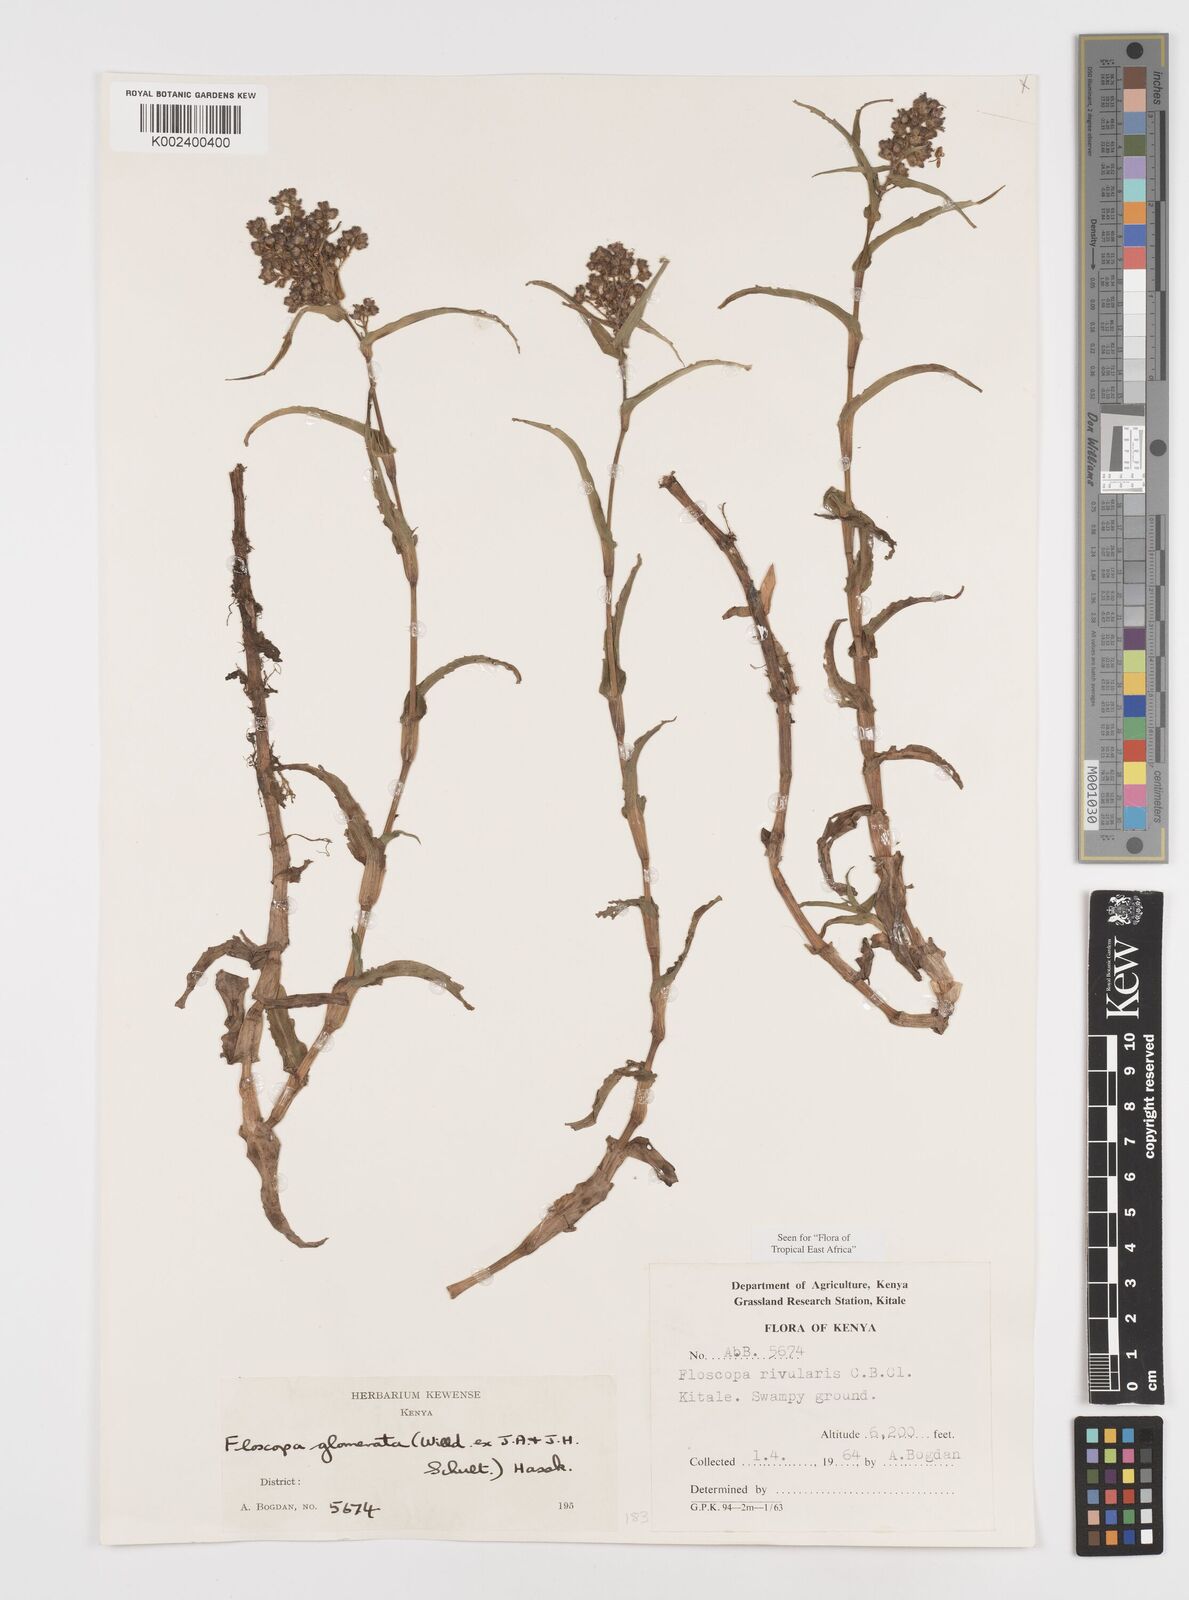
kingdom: Plantae
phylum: Tracheophyta
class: Liliopsida
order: Commelinales
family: Commelinaceae
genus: Floscopa
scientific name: Floscopa glomerata
